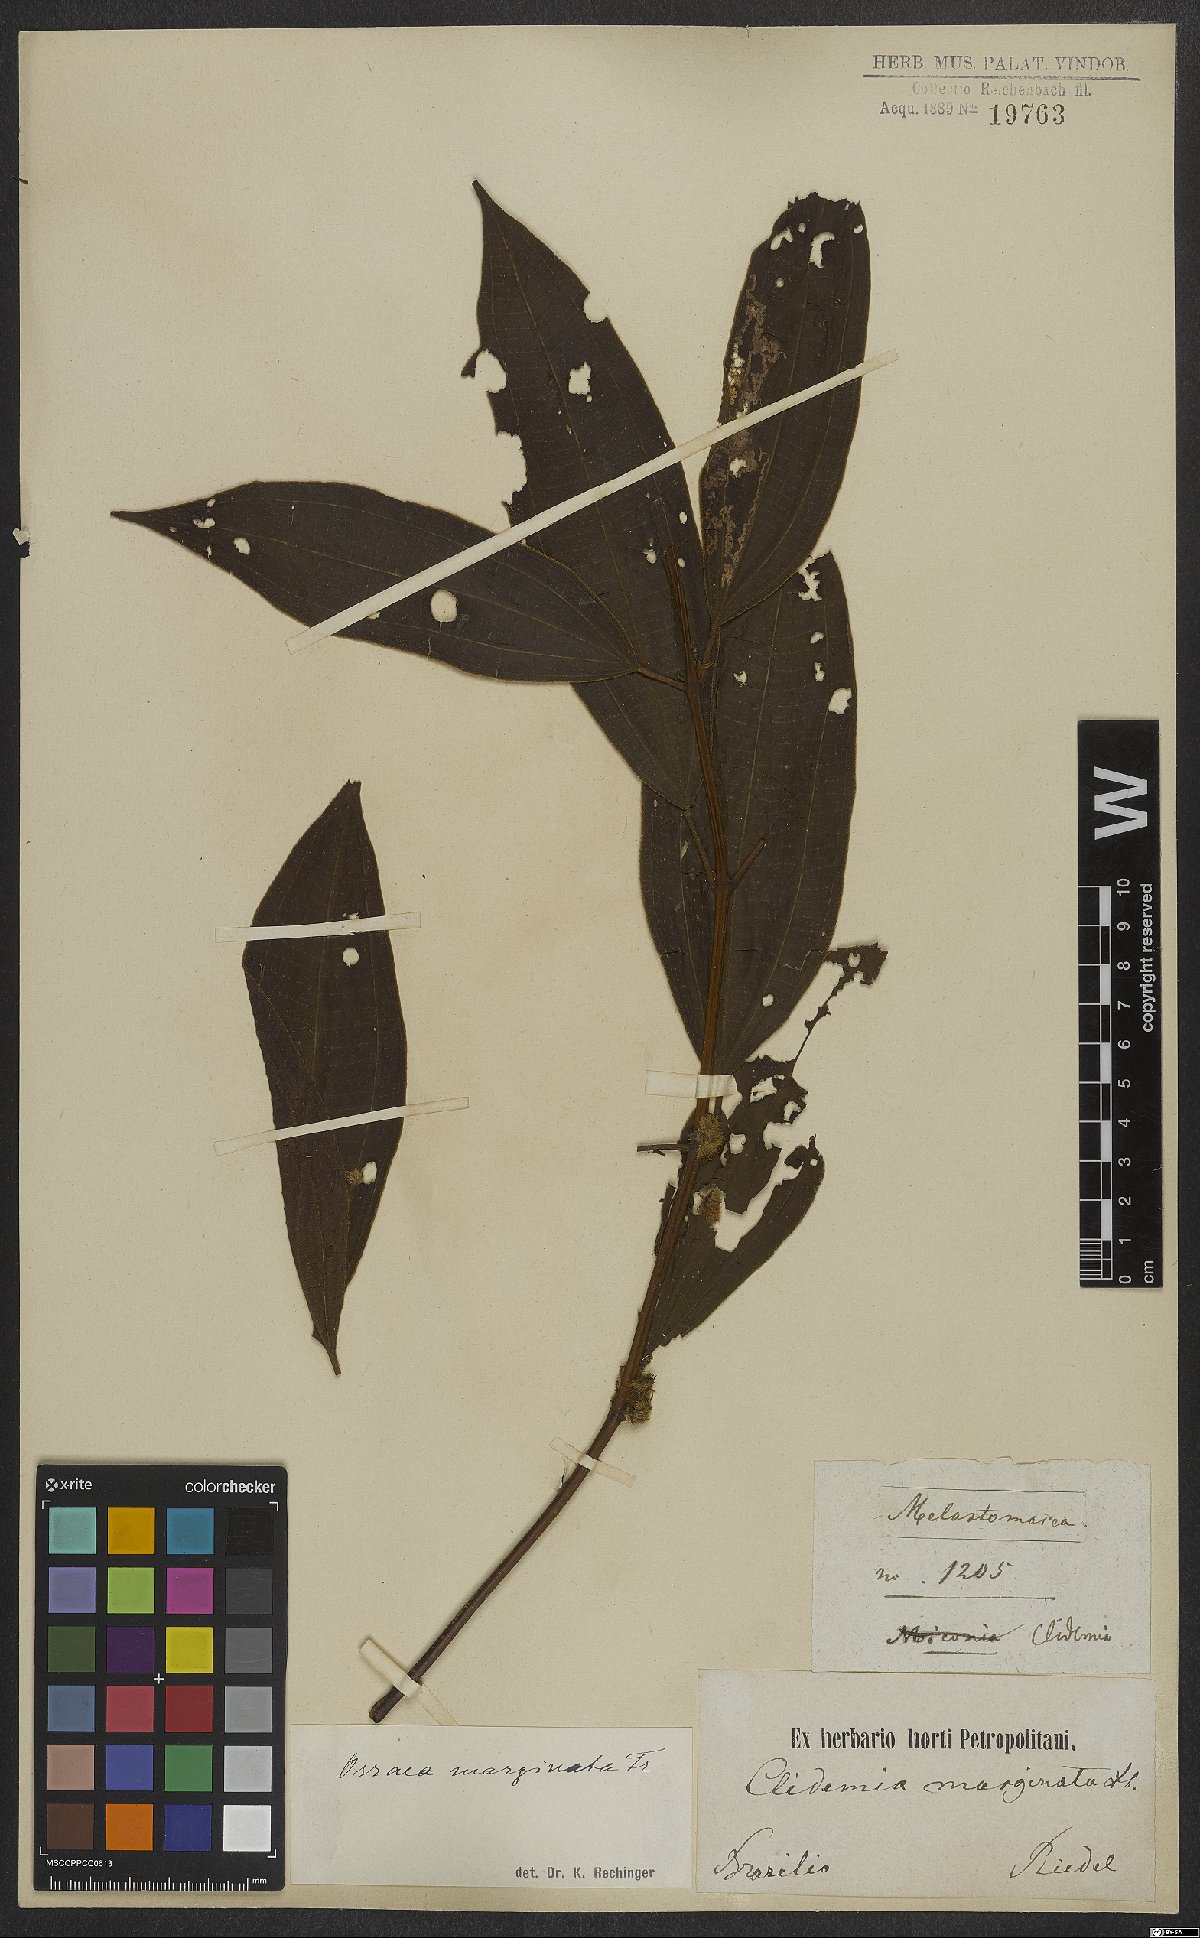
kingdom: Plantae
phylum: Tracheophyta
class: Magnoliopsida
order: Myrtales
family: Melastomataceae
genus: Miconia
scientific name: Miconia leamarginata
